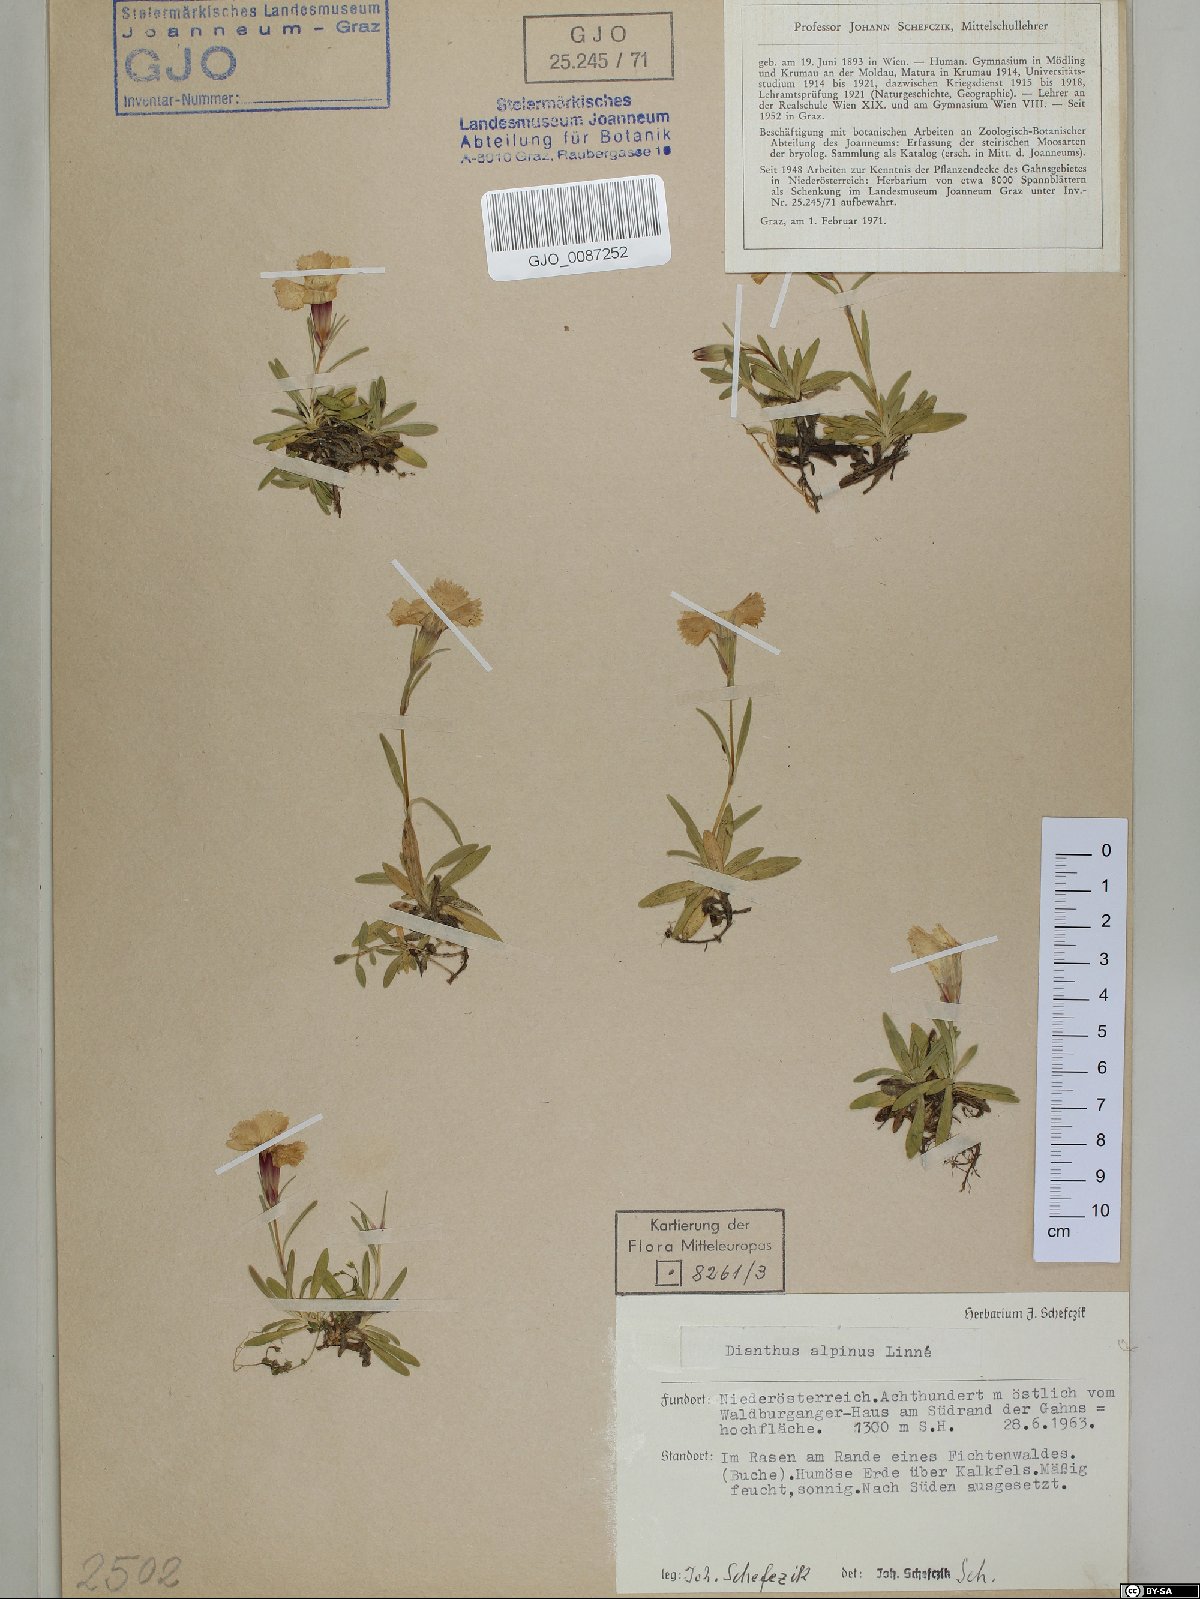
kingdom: Plantae
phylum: Tracheophyta
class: Magnoliopsida
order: Caryophyllales
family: Caryophyllaceae
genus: Dianthus
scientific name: Dianthus alpinus
